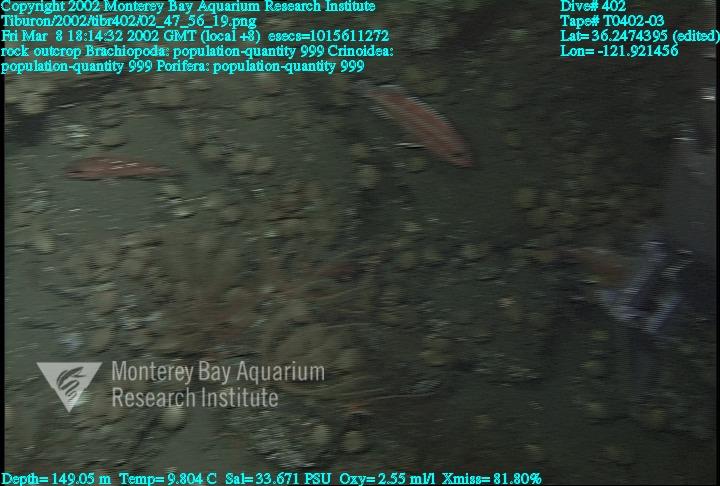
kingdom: Animalia
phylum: Porifera
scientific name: Porifera
